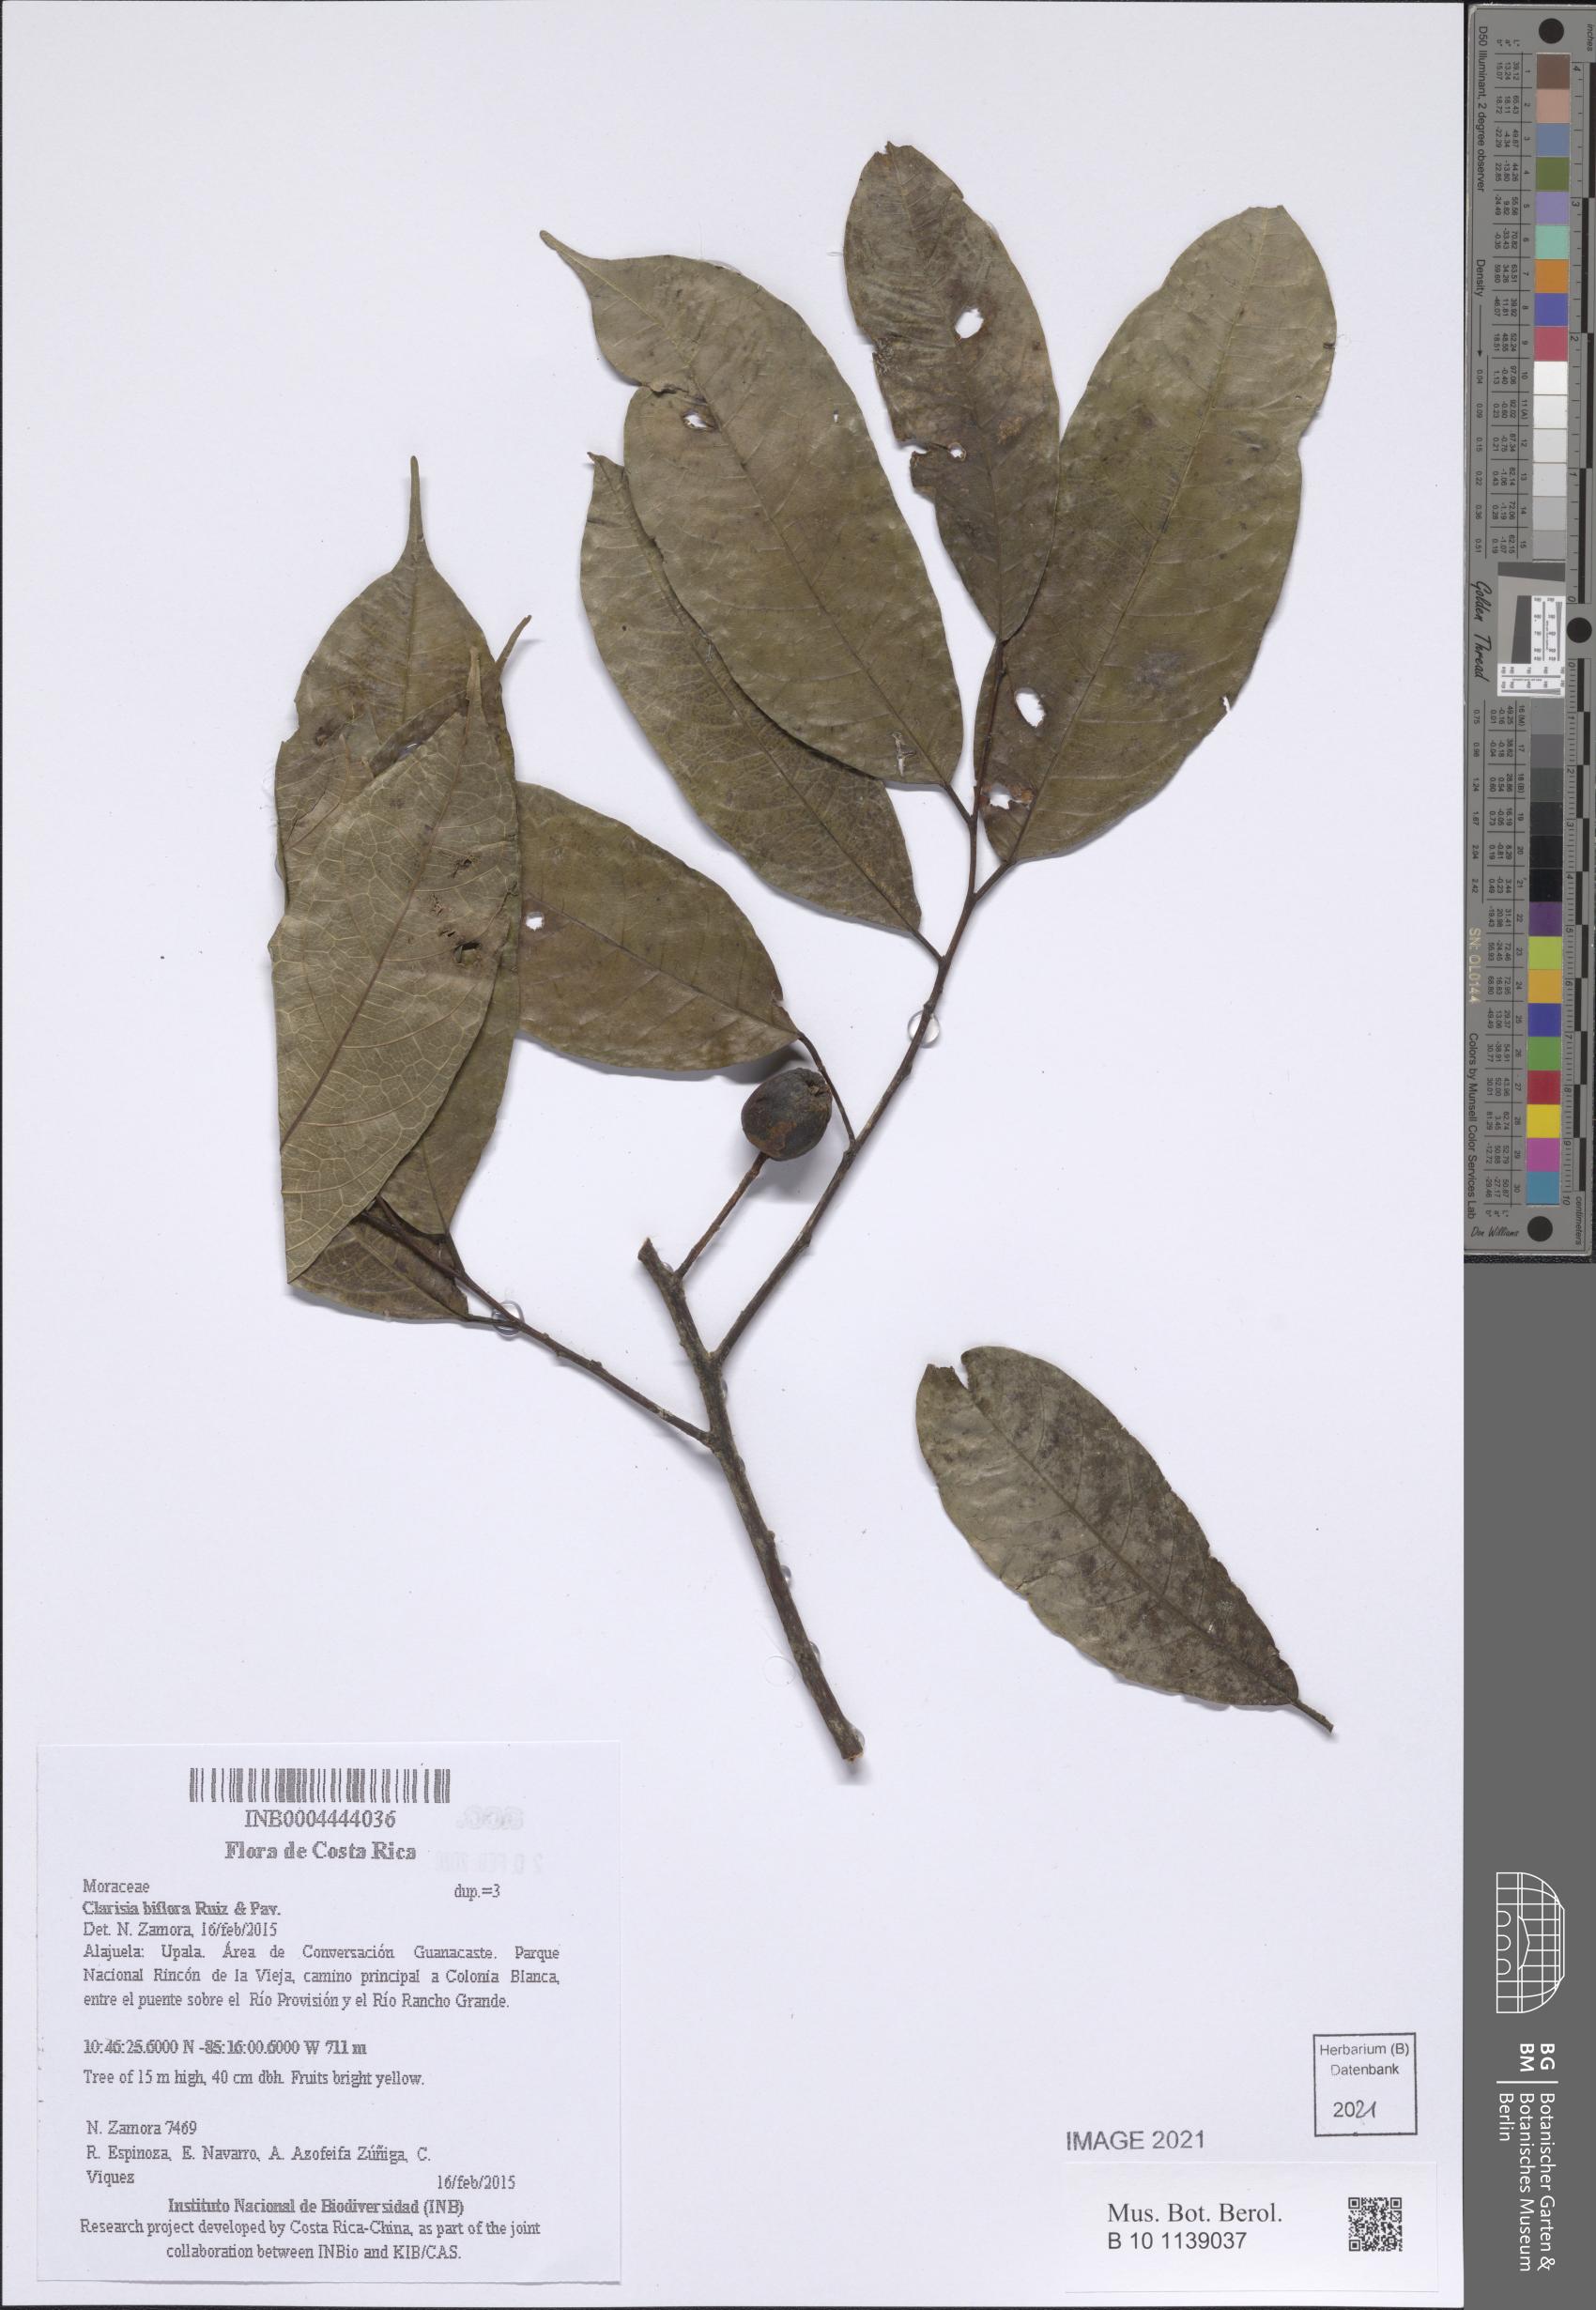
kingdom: Plantae
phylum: Tracheophyta
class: Magnoliopsida
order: Rosales
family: Moraceae
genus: Clarisia
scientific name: Clarisia biflora
